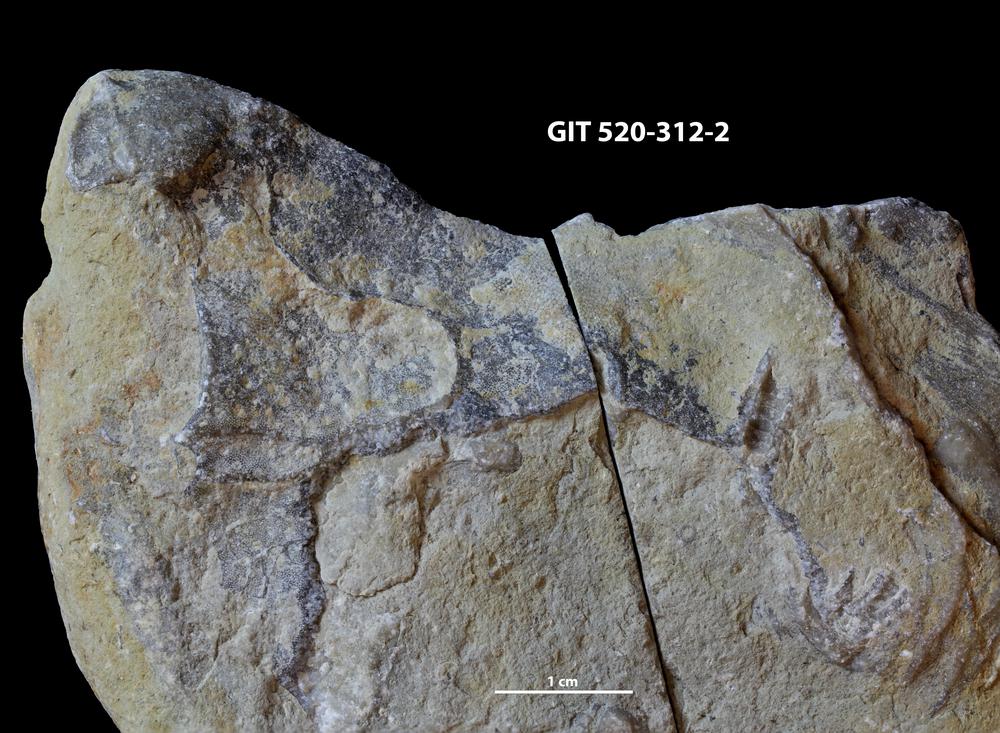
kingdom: Animalia
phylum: Cnidaria
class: Anthozoa
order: Heliolitina
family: Stelliporellidae
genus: Stelliporella
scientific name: Stelliporella
